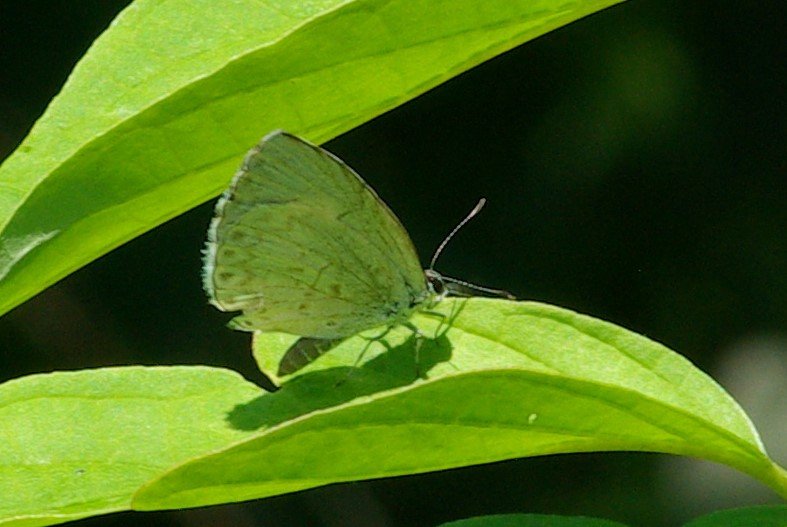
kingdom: Animalia
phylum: Arthropoda
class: Insecta
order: Lepidoptera
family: Lycaenidae
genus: Celastrina
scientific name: Celastrina lucia
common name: Northern Spring Azure
